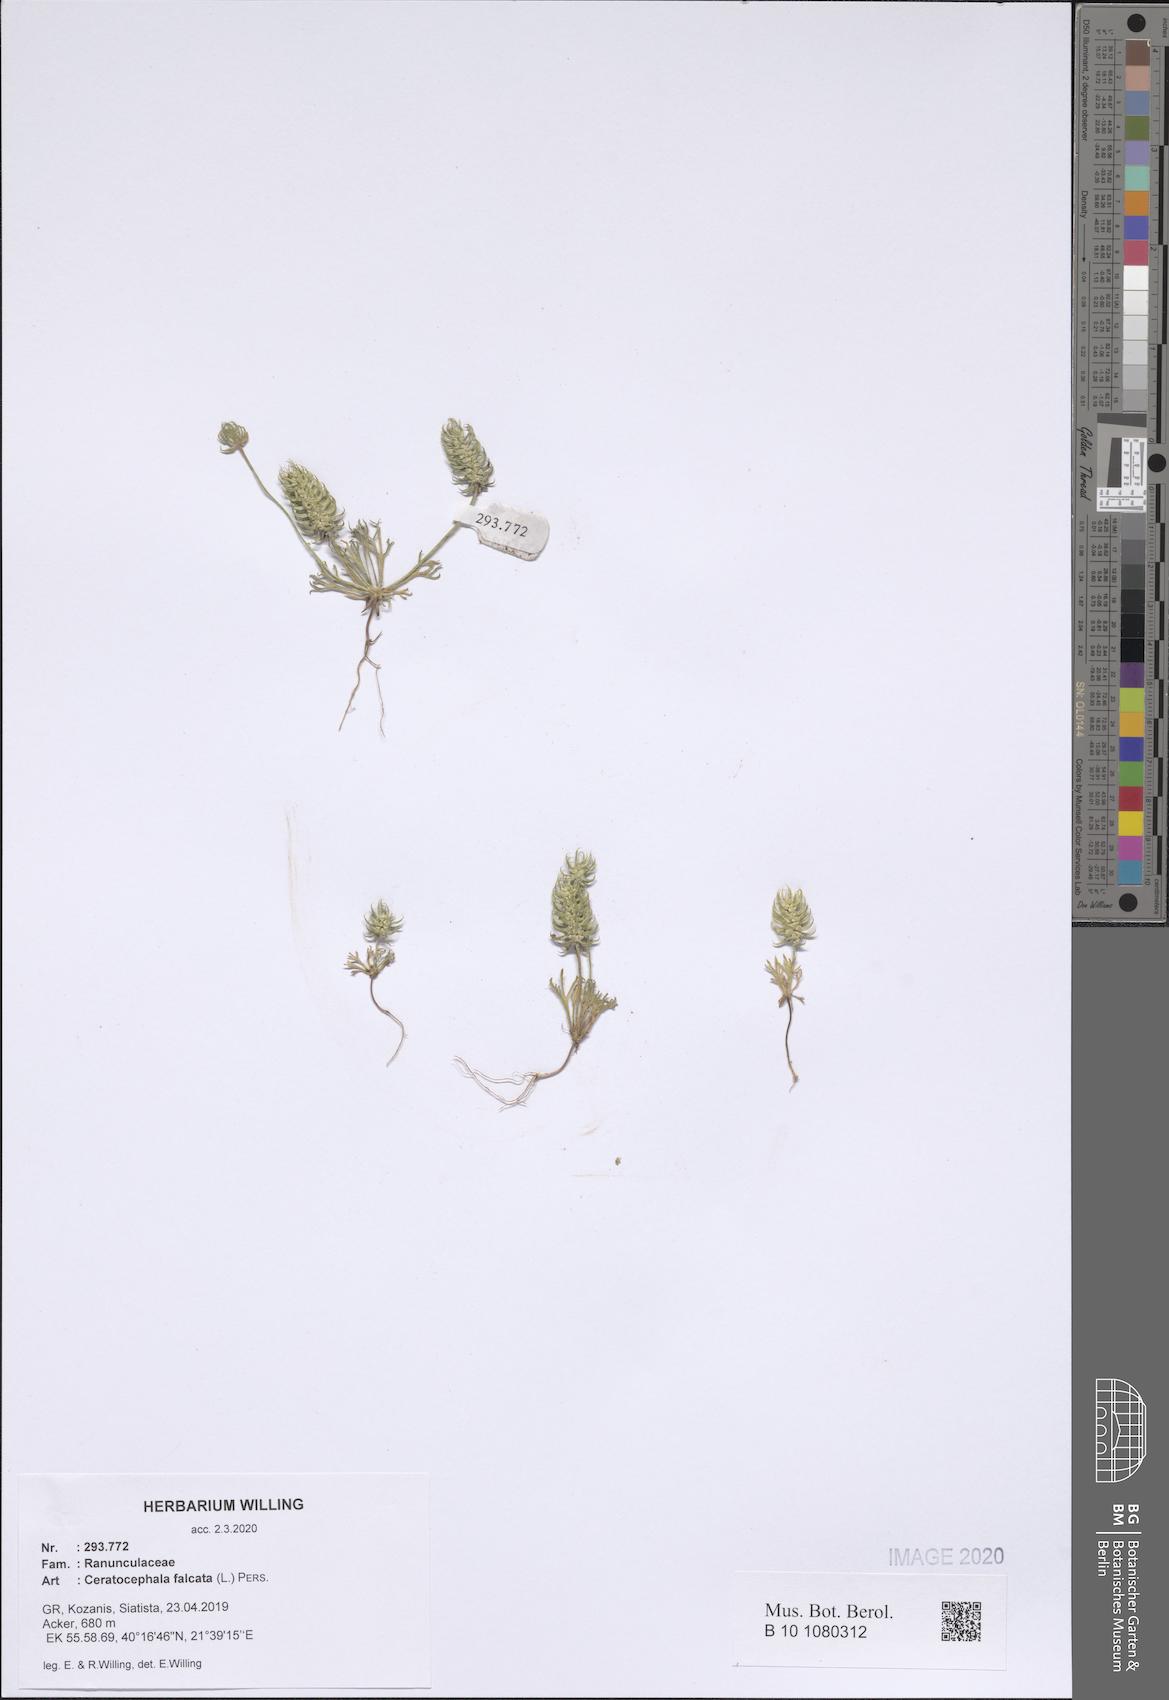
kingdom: Plantae
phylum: Tracheophyta
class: Magnoliopsida
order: Ranunculales
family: Ranunculaceae
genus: Ceratocephala
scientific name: Ceratocephala falcata
